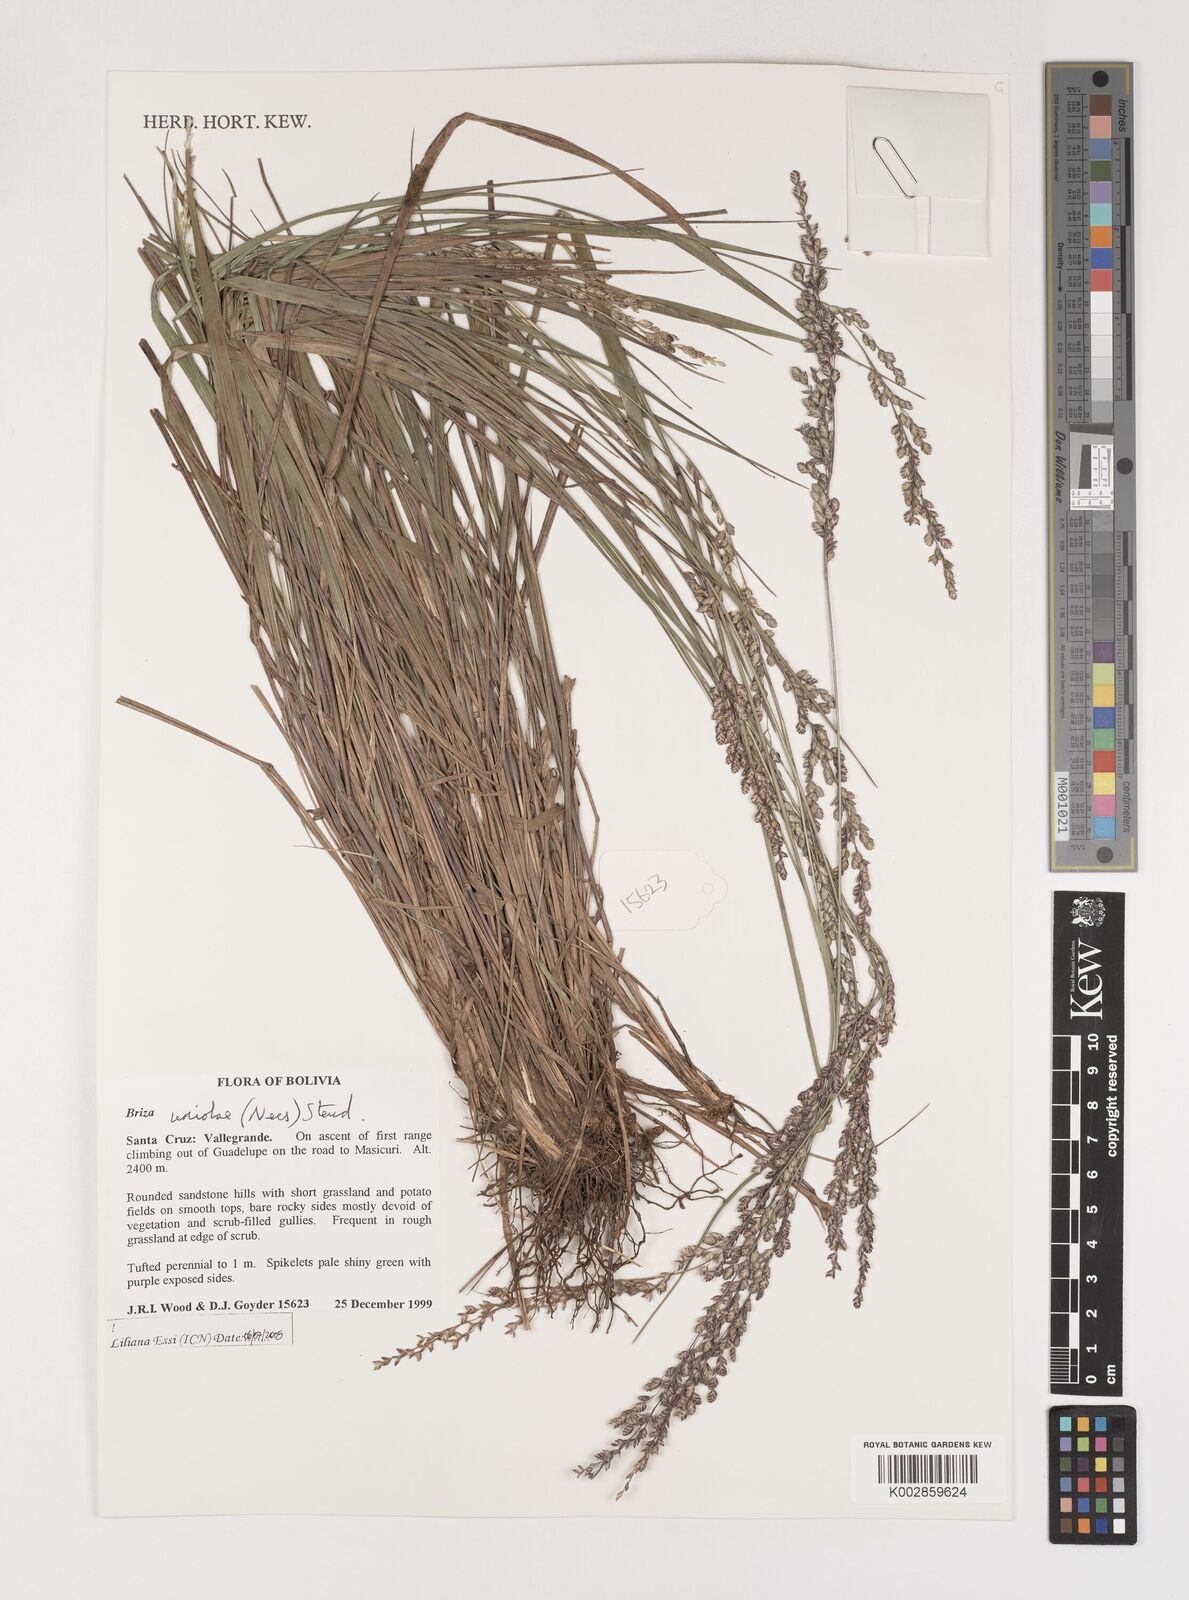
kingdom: Plantae
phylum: Tracheophyta
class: Liliopsida
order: Poales
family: Poaceae
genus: Poidium
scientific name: Poidium uniolae
